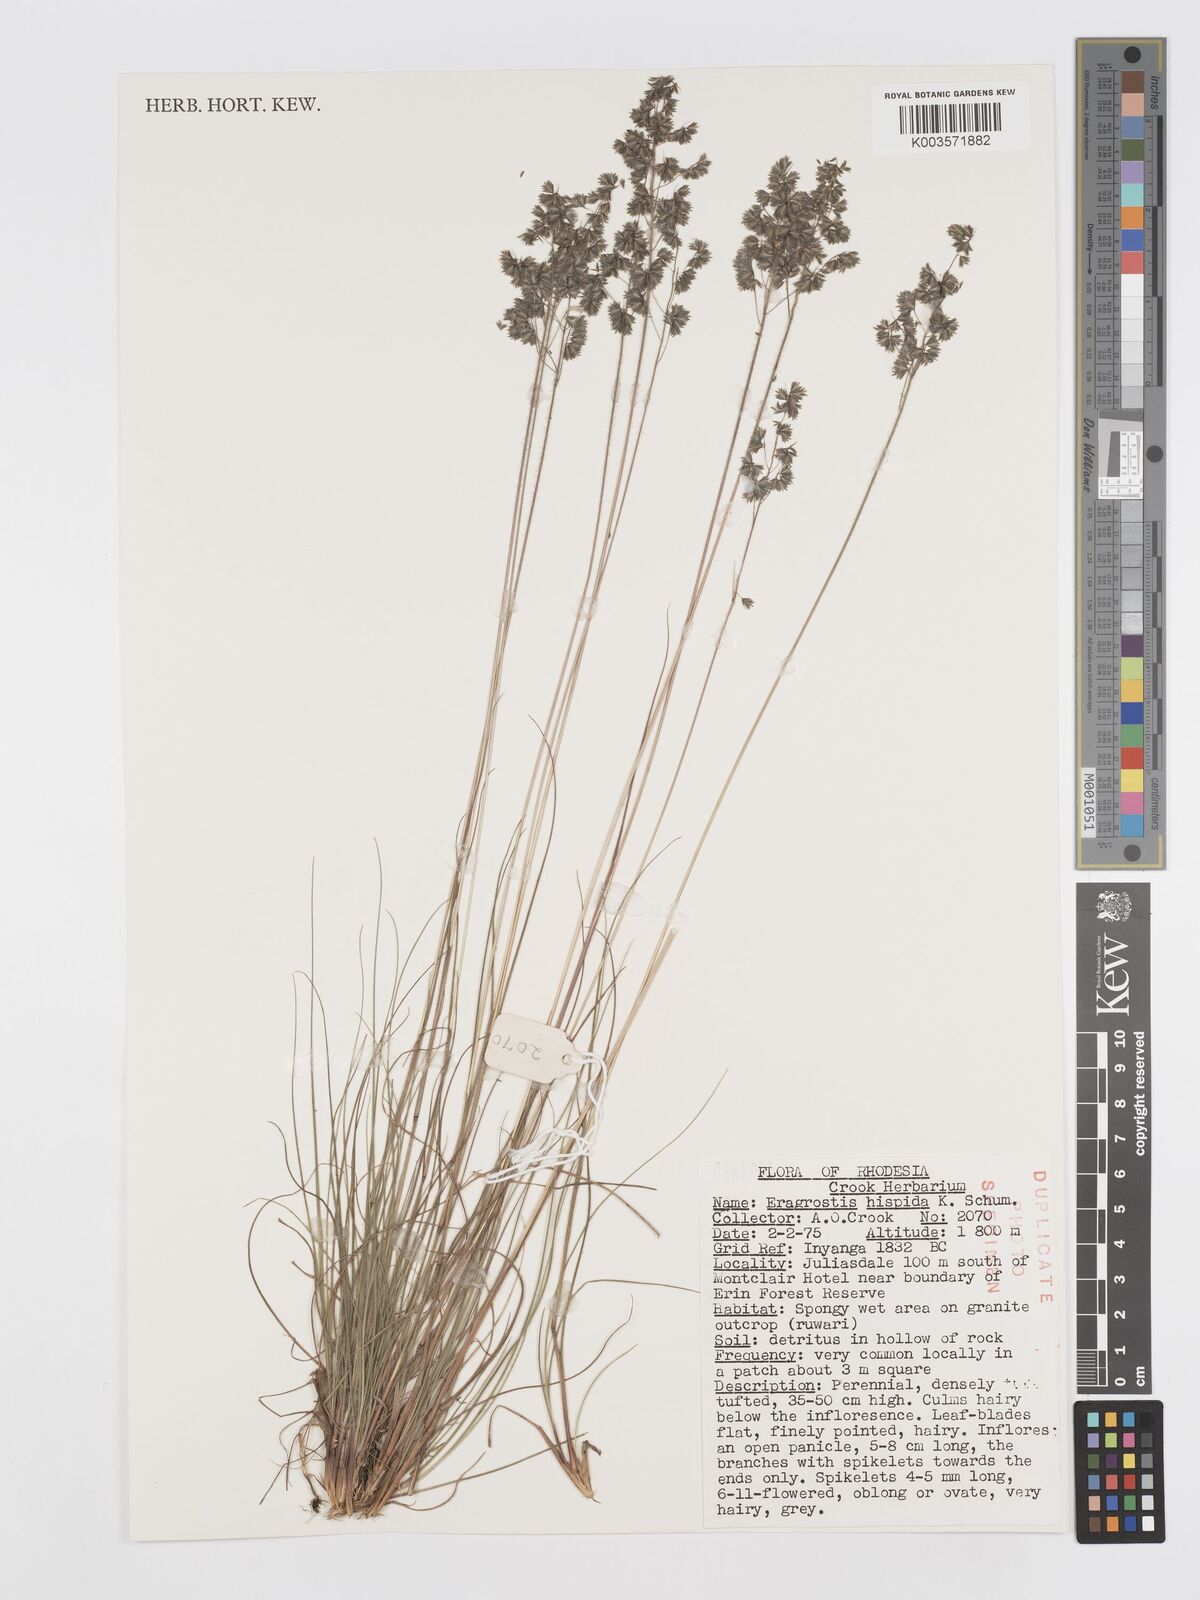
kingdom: Plantae
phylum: Tracheophyta
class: Liliopsida
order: Poales
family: Poaceae
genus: Eragrostis
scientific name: Eragrostis hispida
